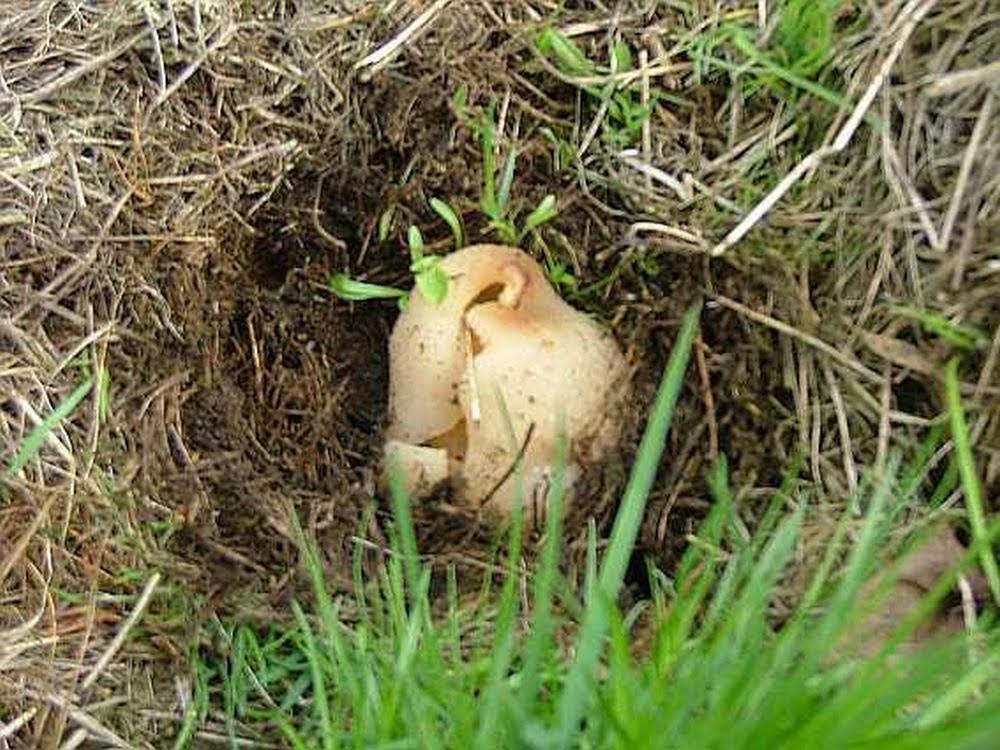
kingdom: Fungi
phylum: Ascomycota
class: Pezizomycetes
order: Pezizales
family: Pezizaceae
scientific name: Pezizaceae
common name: bægersvampfamilien
